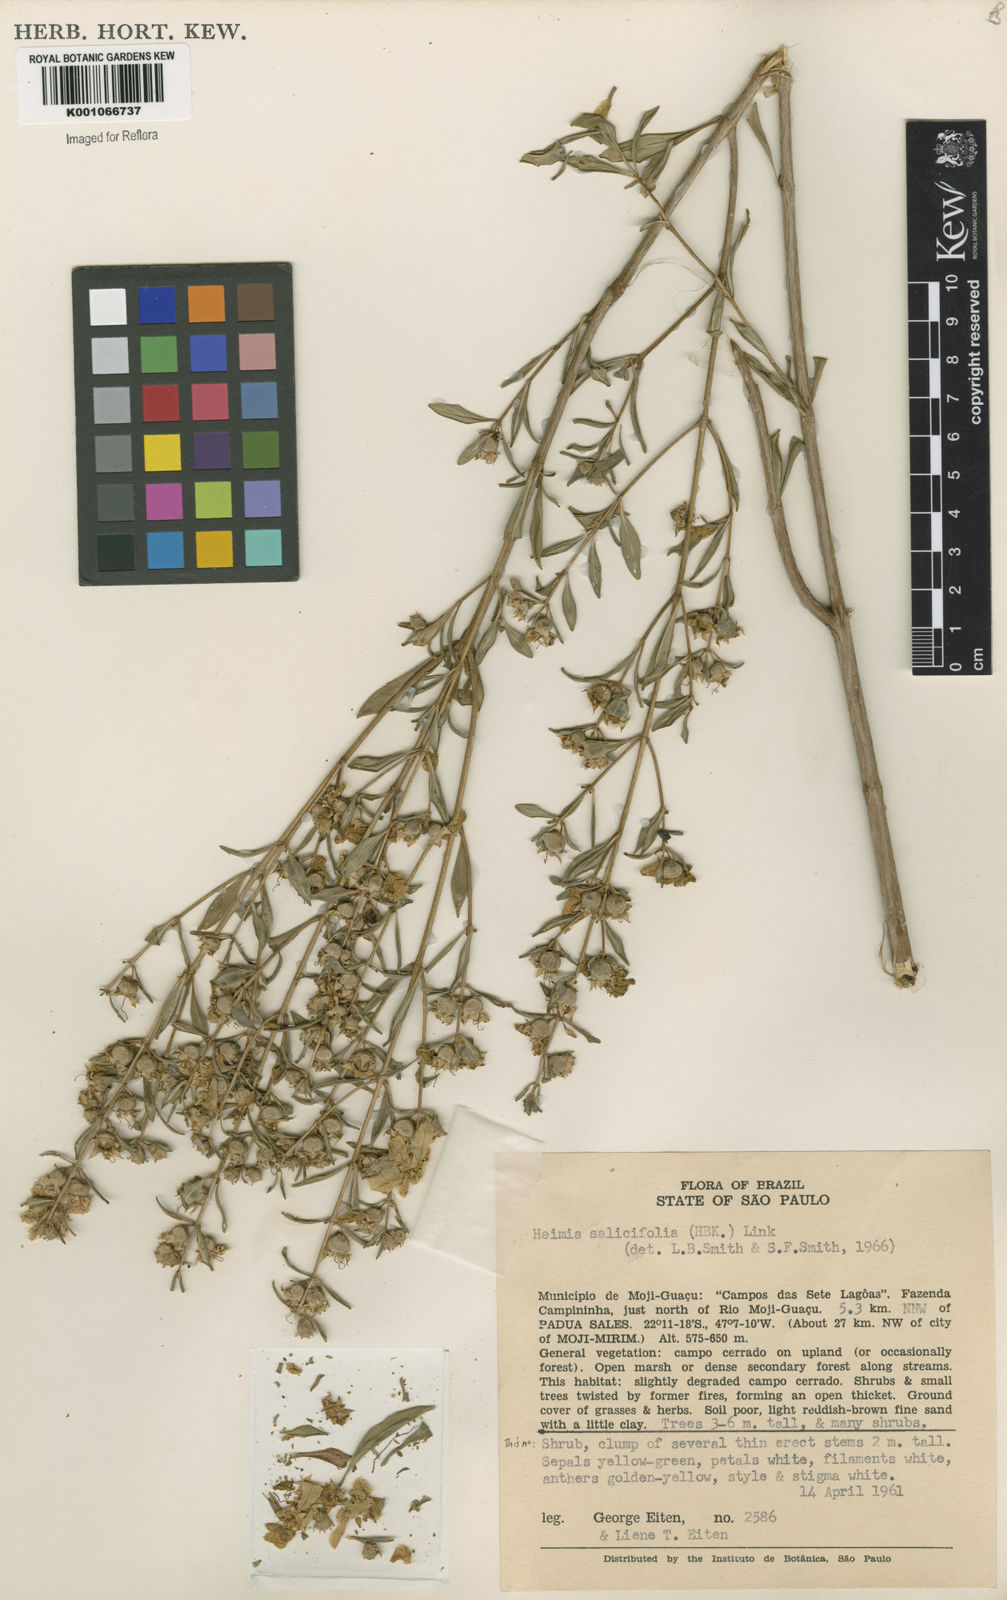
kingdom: Plantae
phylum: Tracheophyta
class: Magnoliopsida
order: Myrtales
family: Lythraceae
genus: Heimia
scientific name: Heimia salicifolia
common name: Willow-leaf heimia
